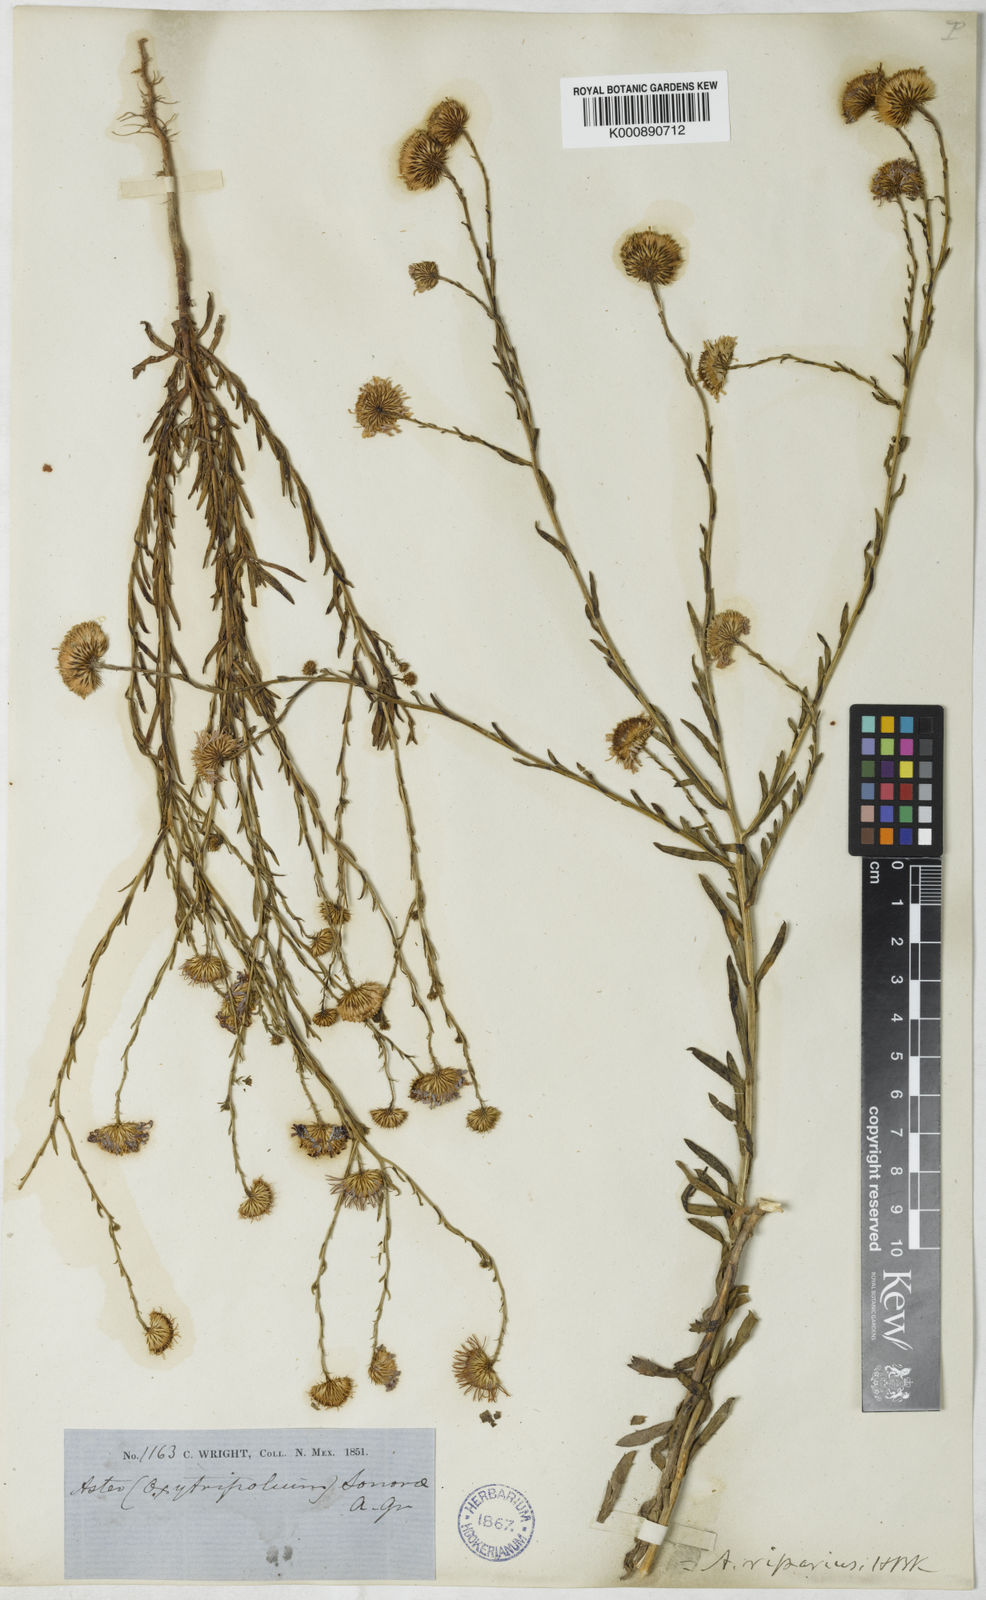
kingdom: Plantae
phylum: Tracheophyta
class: Magnoliopsida
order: Asterales
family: Asteraceae
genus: Leucosyris
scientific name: Leucosyris riparia
